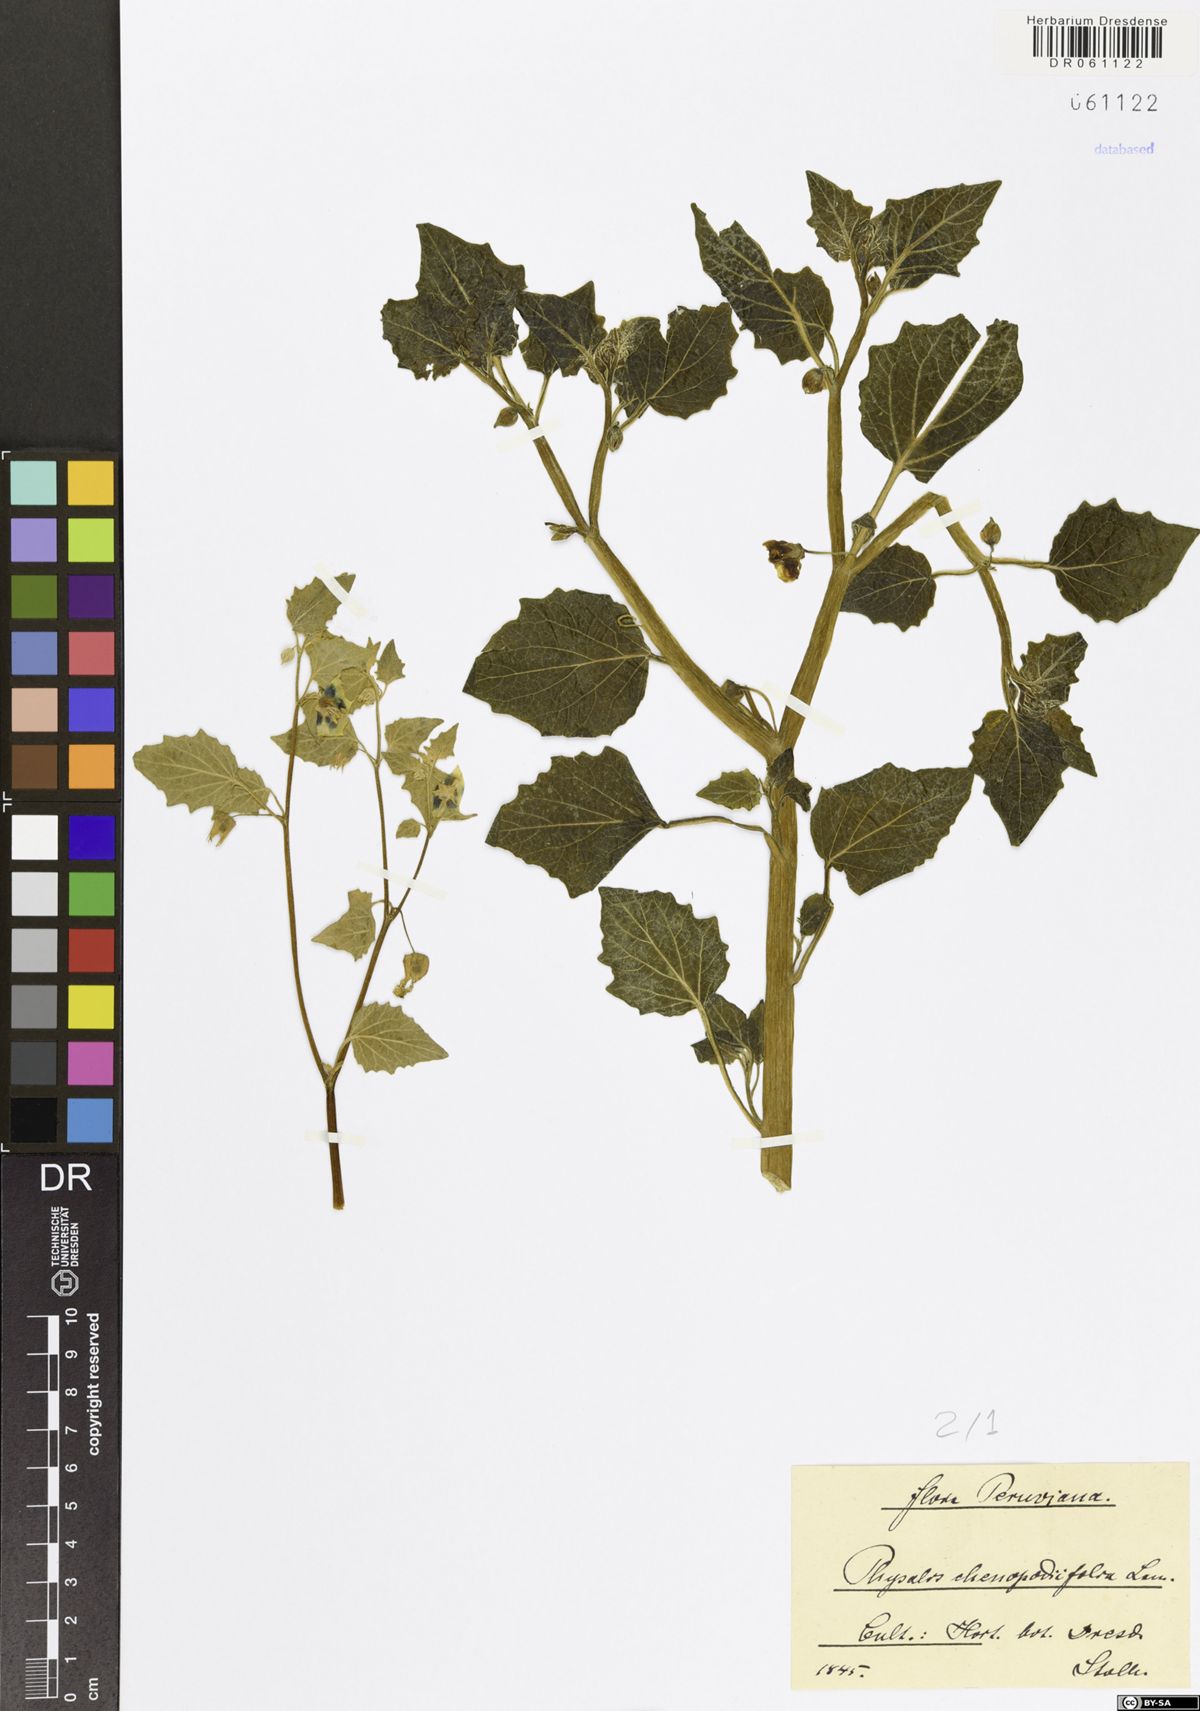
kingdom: Plantae
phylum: Tracheophyta
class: Magnoliopsida
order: Solanales
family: Solanaceae
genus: Physalis
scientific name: Physalis peruviana
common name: Cape-gooseberry
